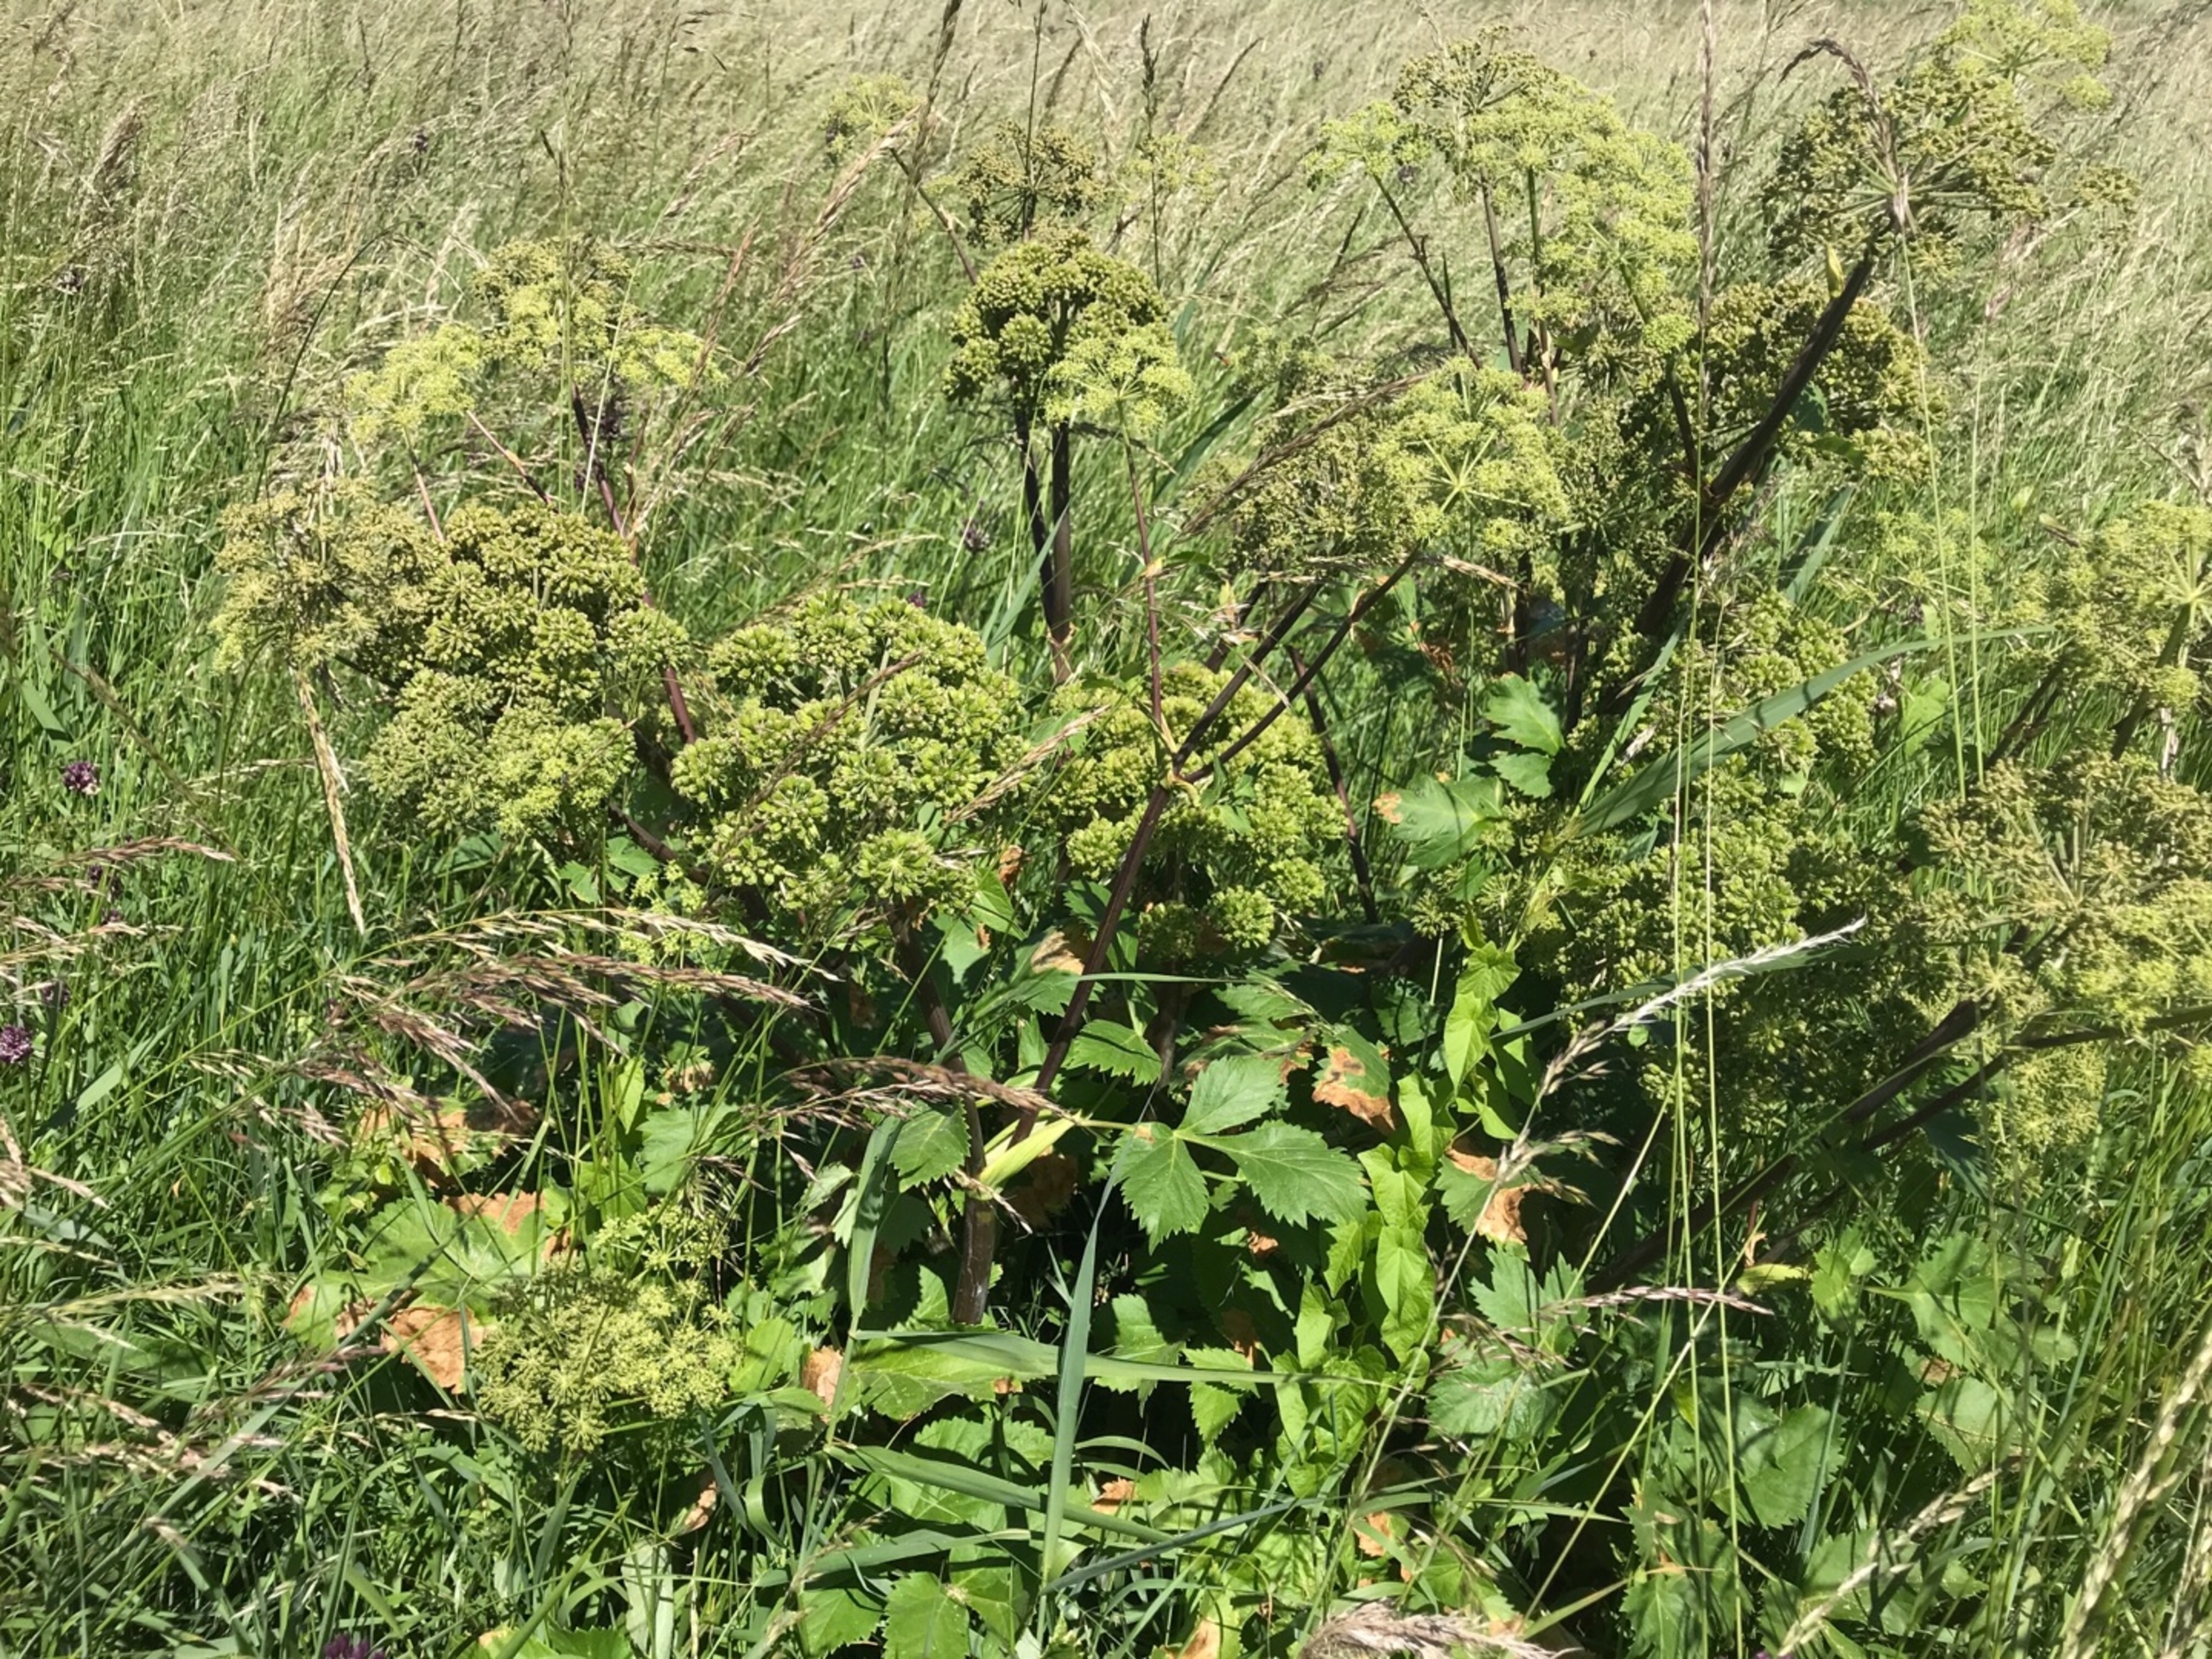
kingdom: Plantae
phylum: Tracheophyta
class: Magnoliopsida
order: Apiales
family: Apiaceae
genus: Angelica
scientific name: Angelica archangelica
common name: Kvan
